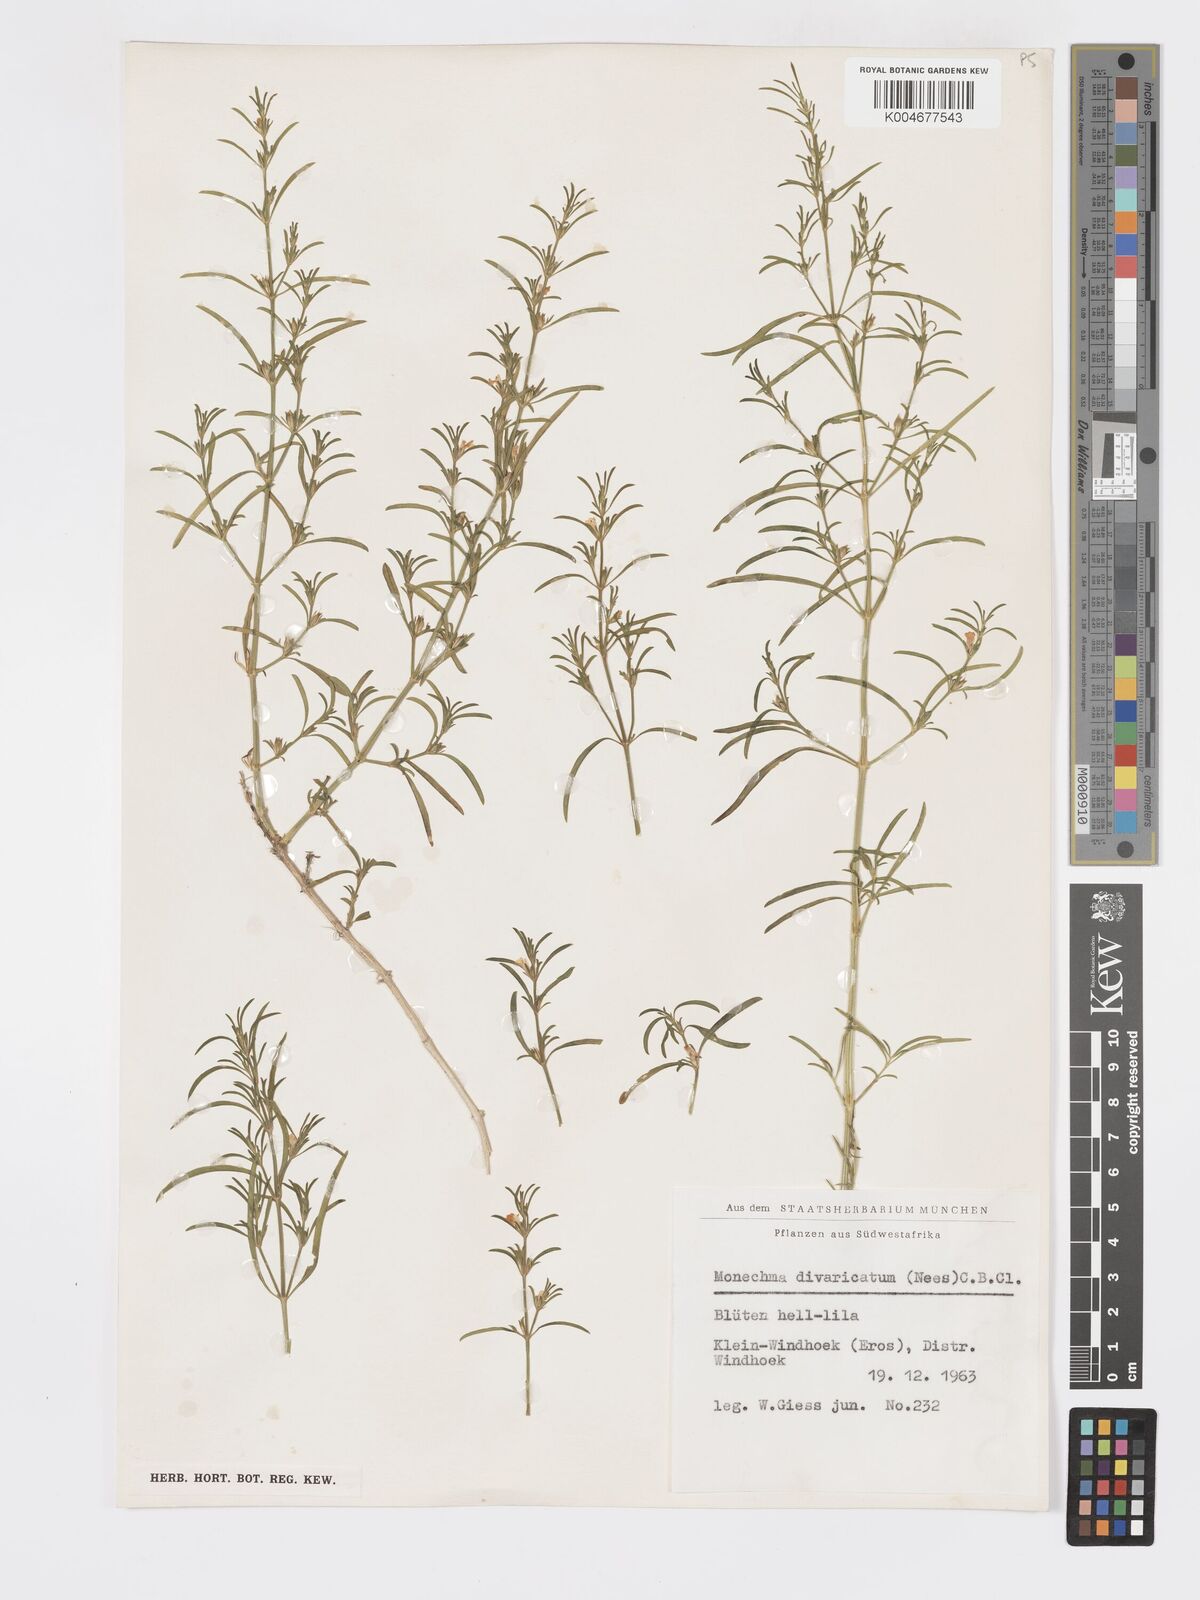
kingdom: Plantae
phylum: Tracheophyta
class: Magnoliopsida
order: Lamiales
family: Acanthaceae
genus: Pogonospermum
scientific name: Pogonospermum
